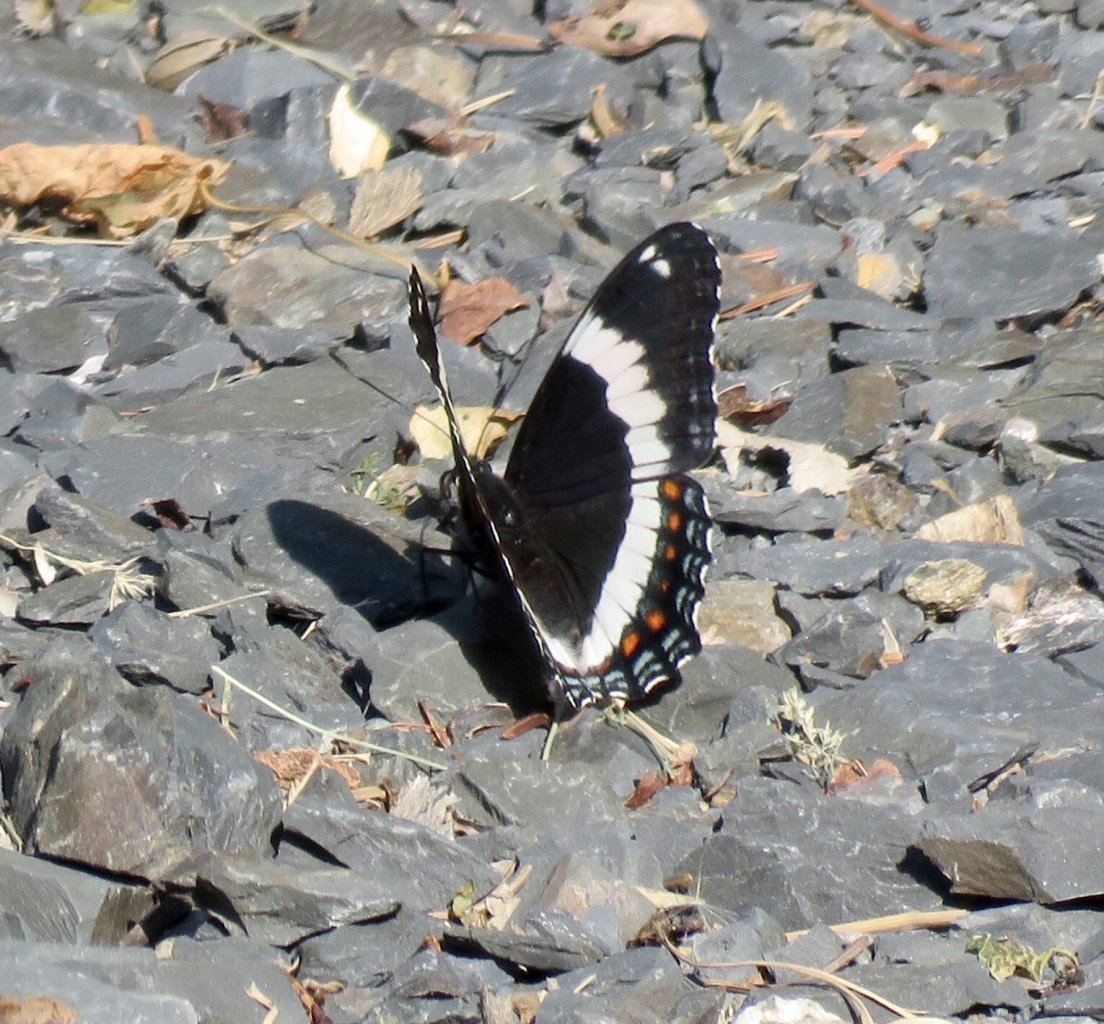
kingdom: Animalia
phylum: Arthropoda
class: Insecta
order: Lepidoptera
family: Nymphalidae
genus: Limenitis
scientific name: Limenitis arthemis
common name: Red-spotted Admiral
